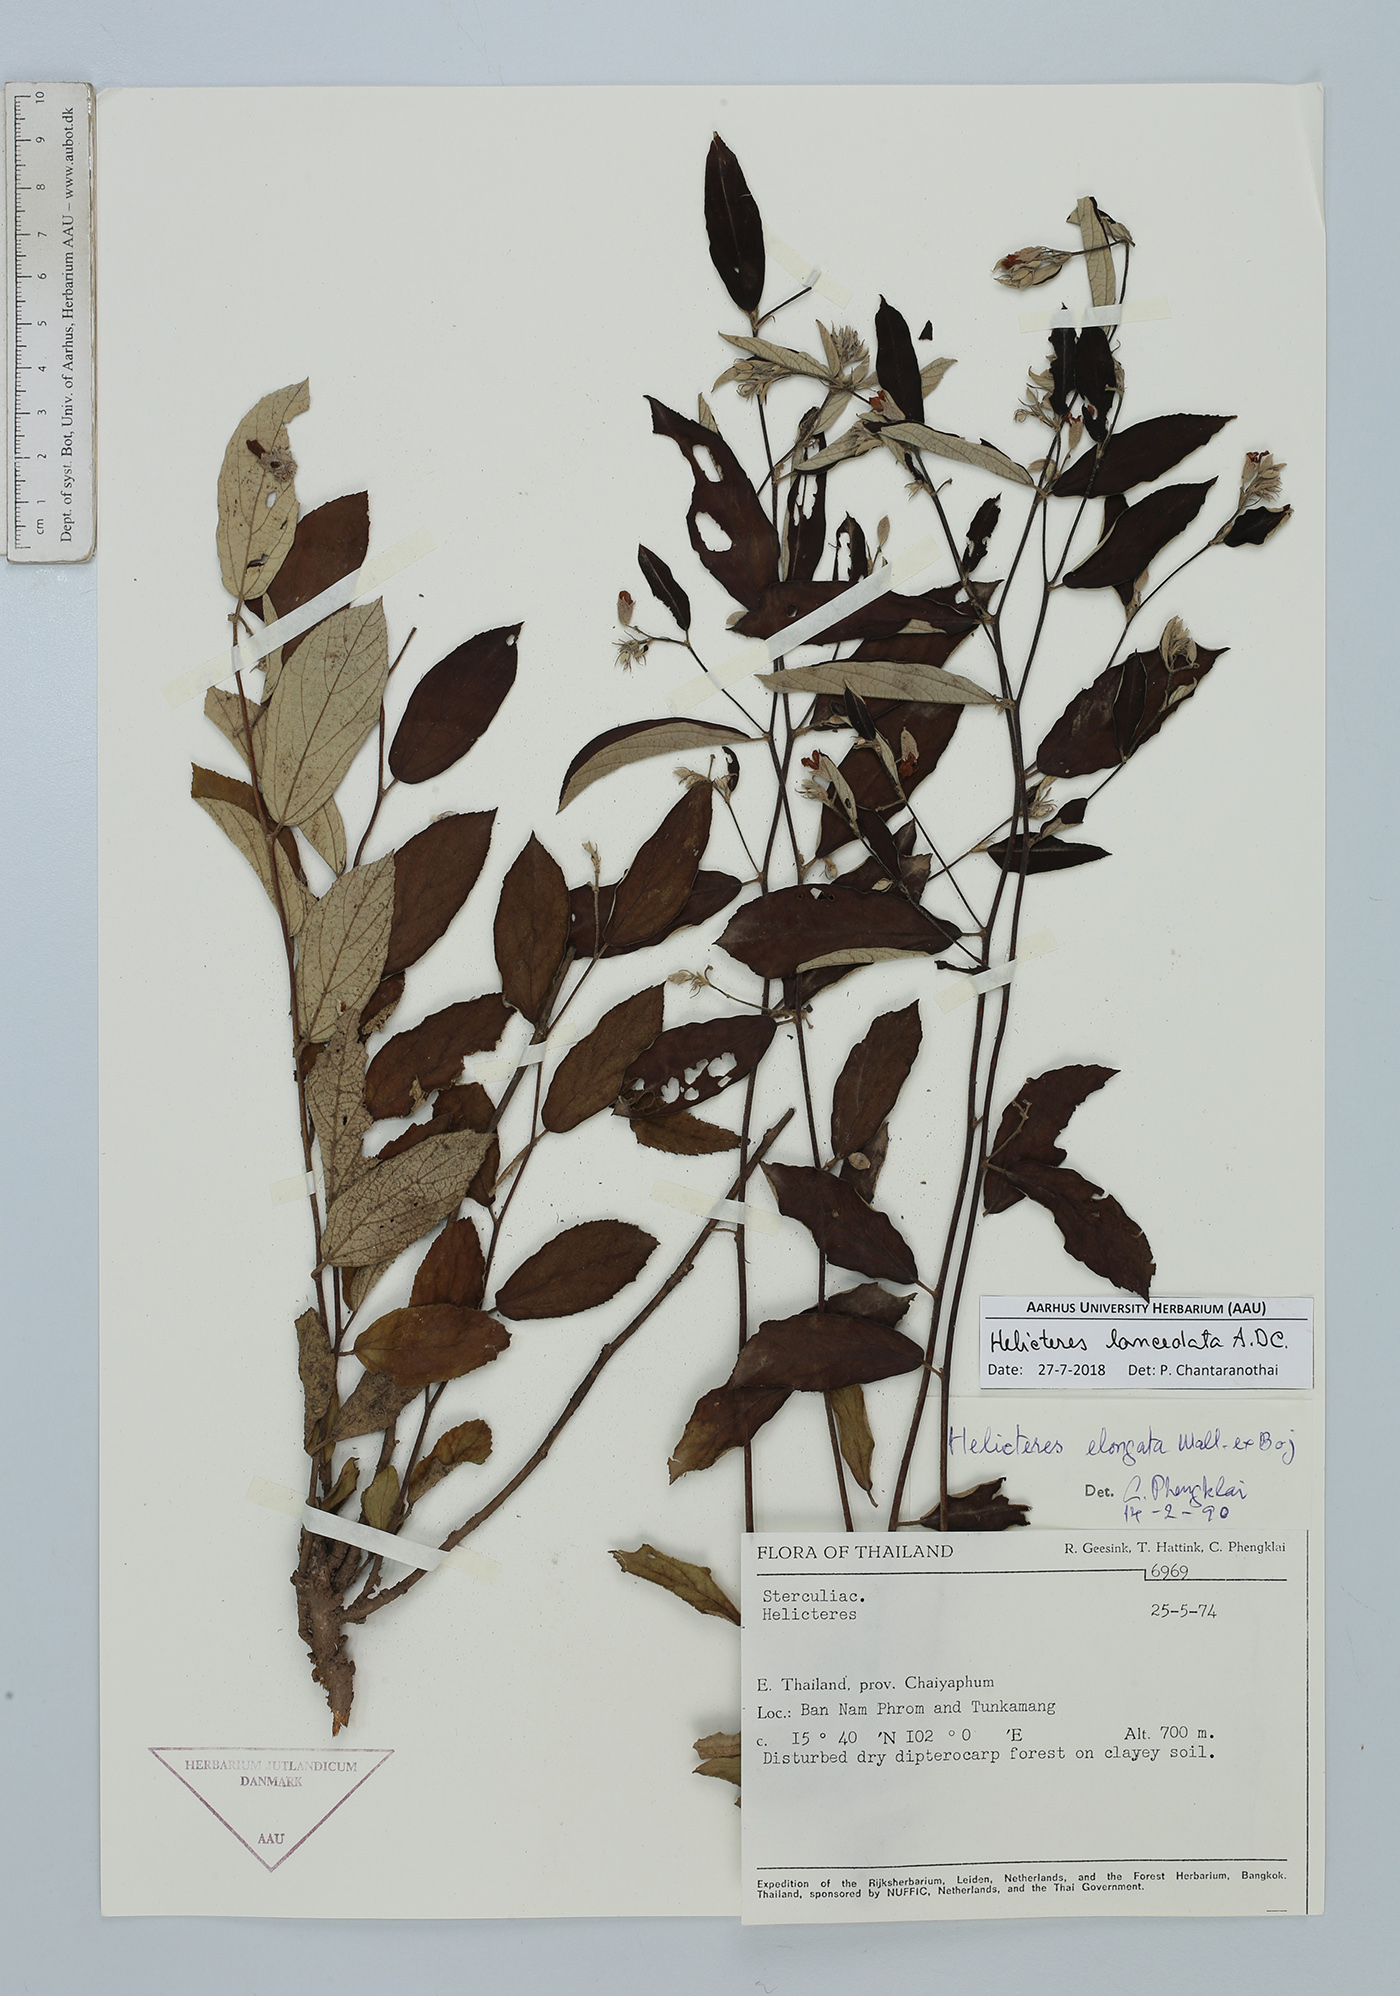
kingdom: Plantae
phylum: Tracheophyta
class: Magnoliopsida
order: Malvales
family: Malvaceae
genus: Helicteres
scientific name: Helicteres lanceolata
